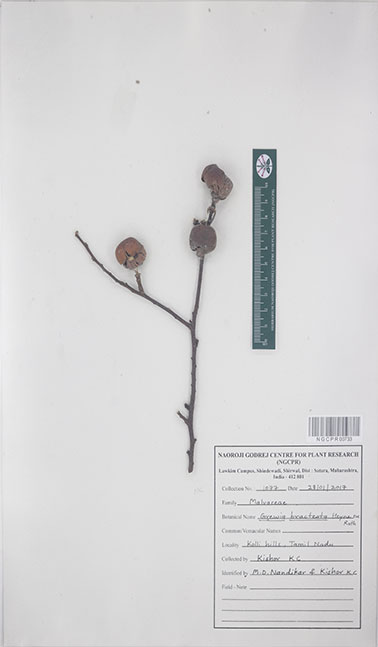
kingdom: Plantae
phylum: Tracheophyta
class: Magnoliopsida
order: Malvales
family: Malvaceae
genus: Grewia
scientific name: Grewia bracteata
